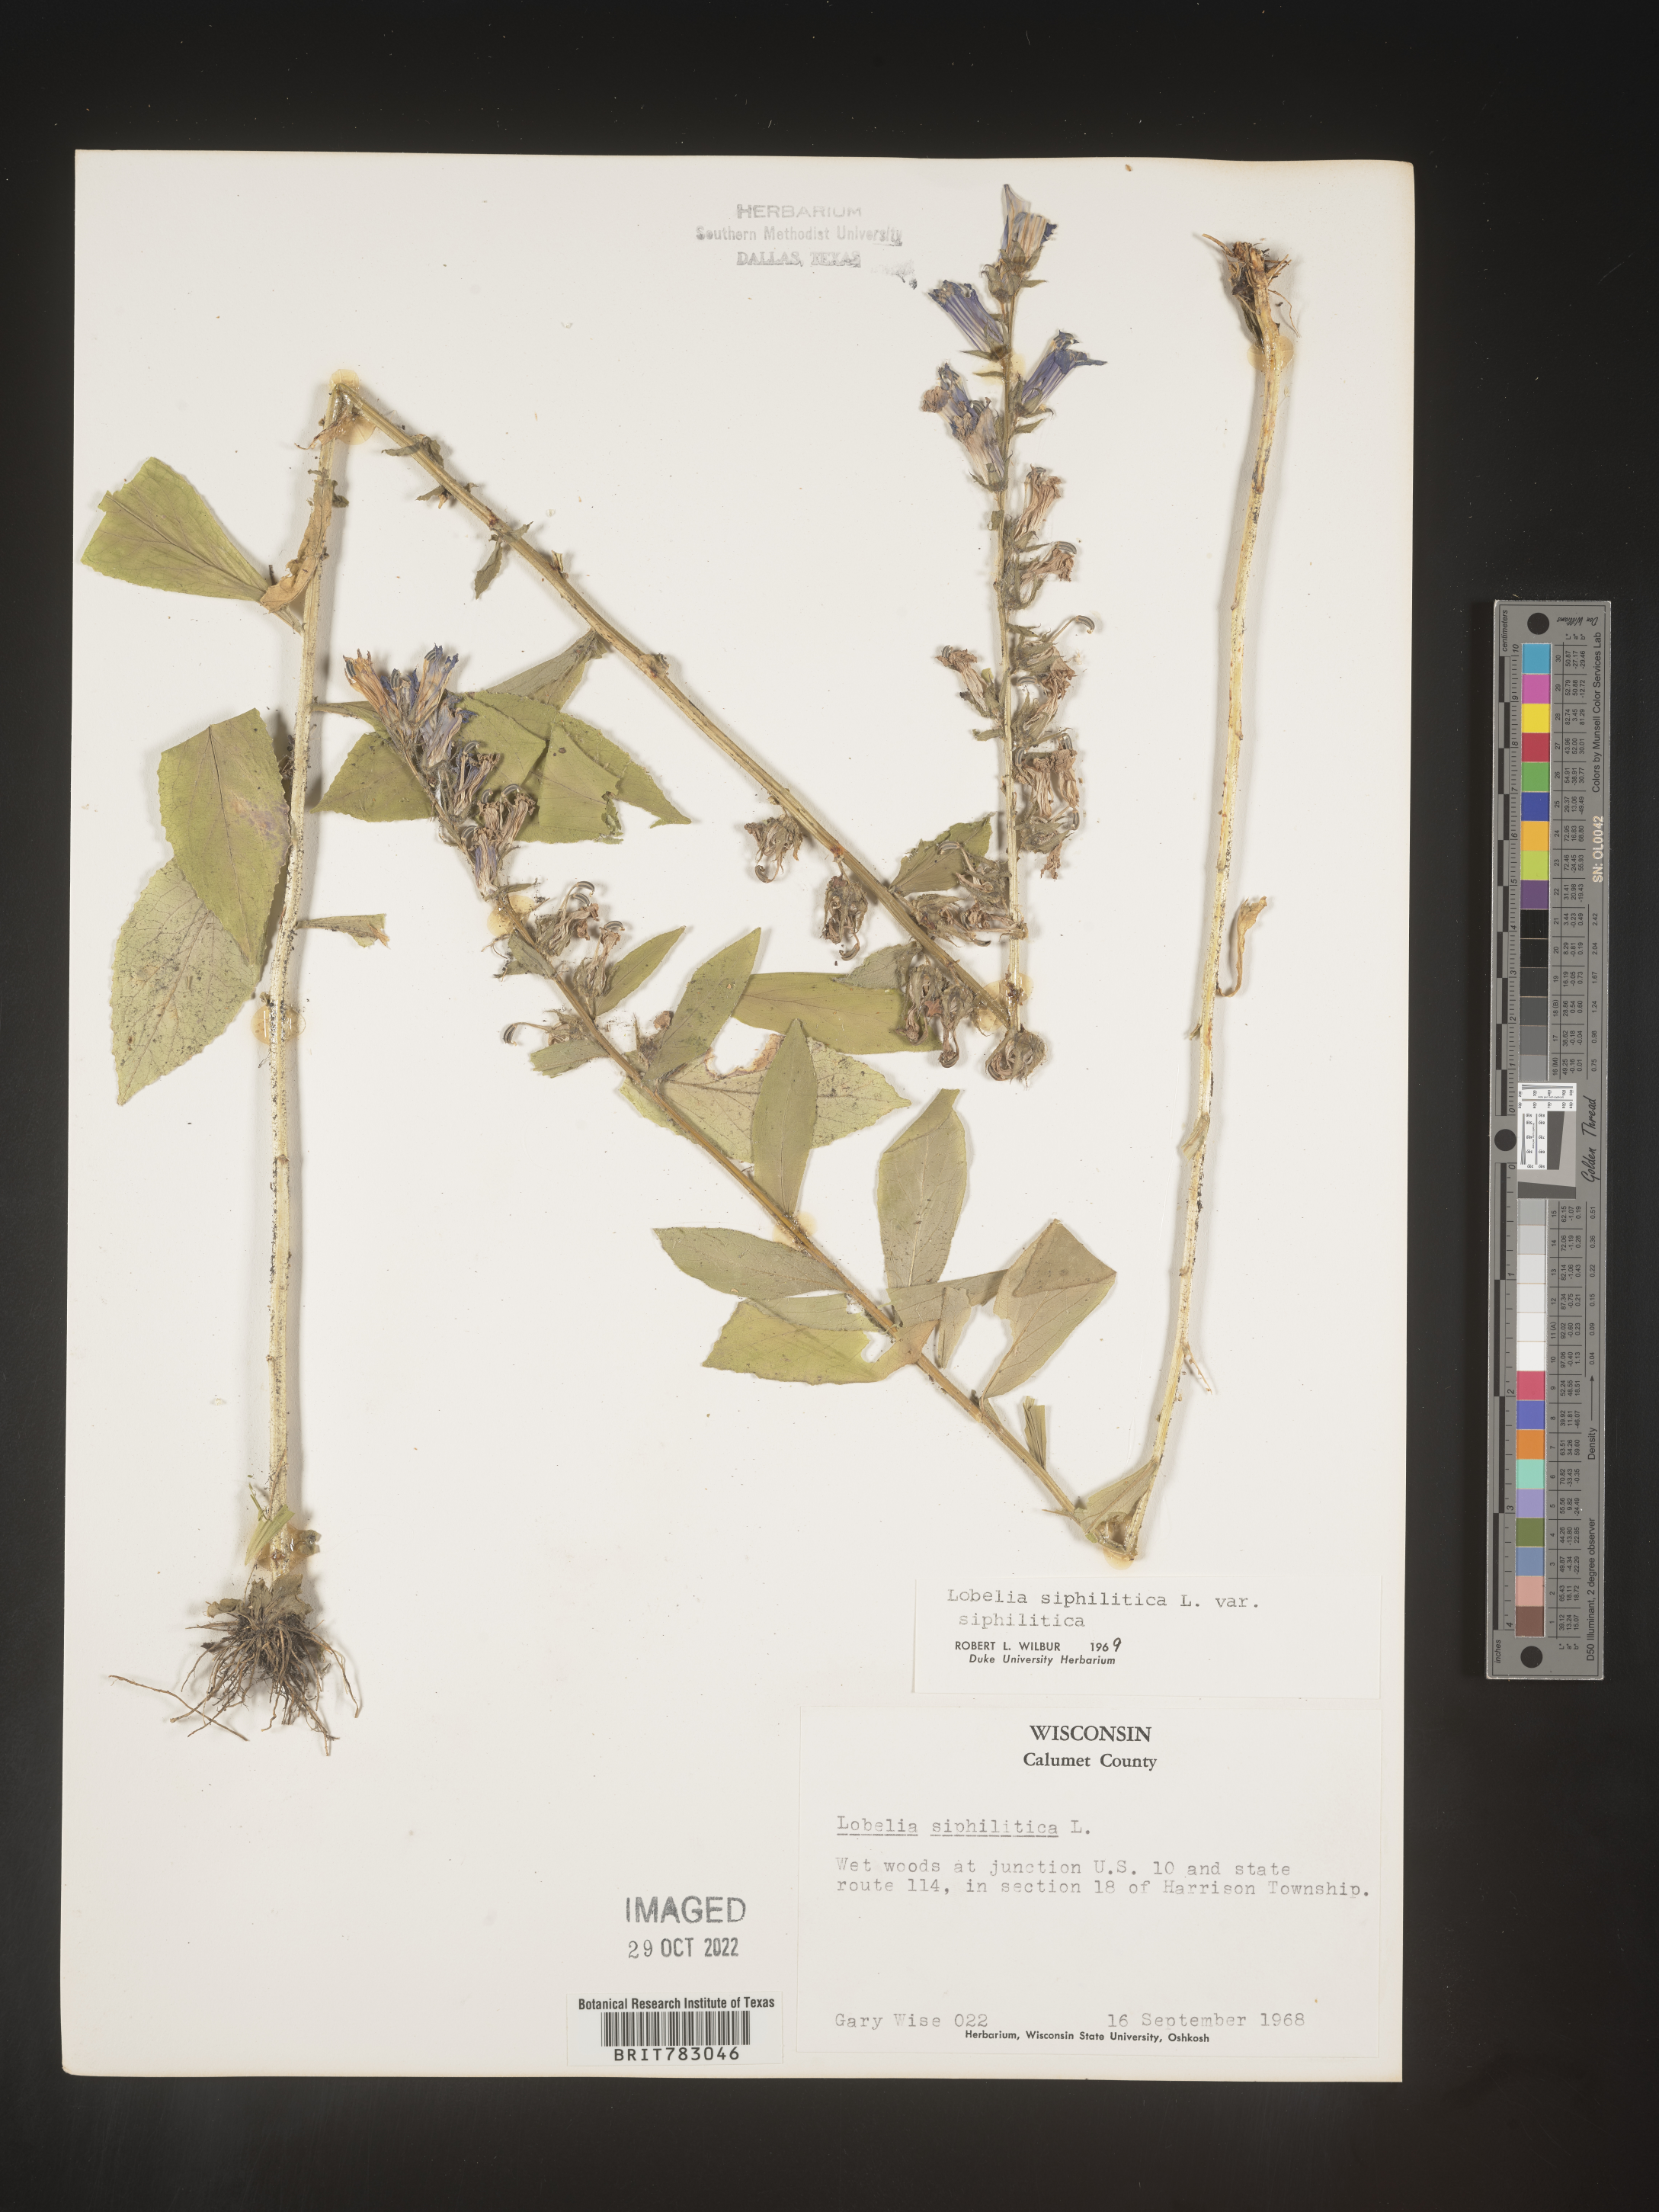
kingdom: Plantae
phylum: Tracheophyta
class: Magnoliopsida
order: Asterales
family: Campanulaceae
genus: Lobelia
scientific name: Lobelia siphilitica
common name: Great lobelia
